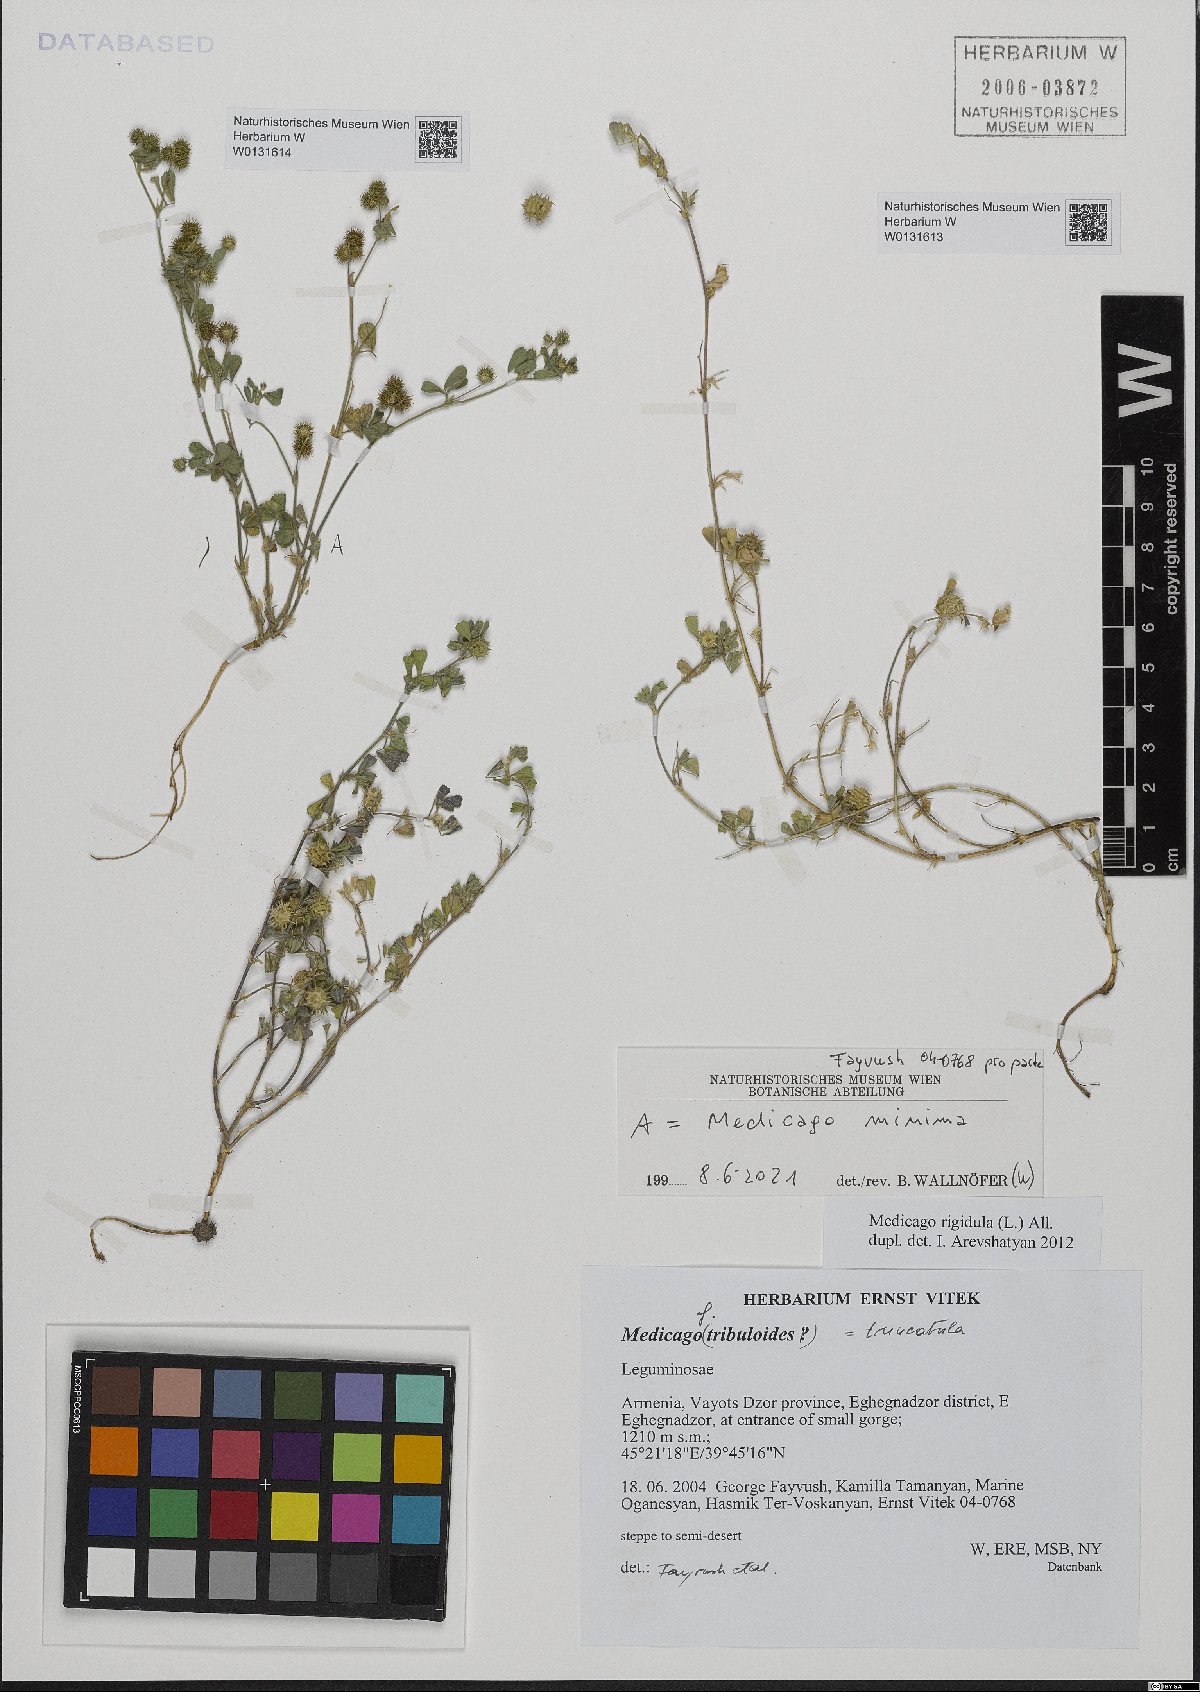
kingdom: Plantae
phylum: Tracheophyta
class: Magnoliopsida
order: Fabales
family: Fabaceae
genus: Medicago
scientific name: Medicago minima
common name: Little bur-clover
